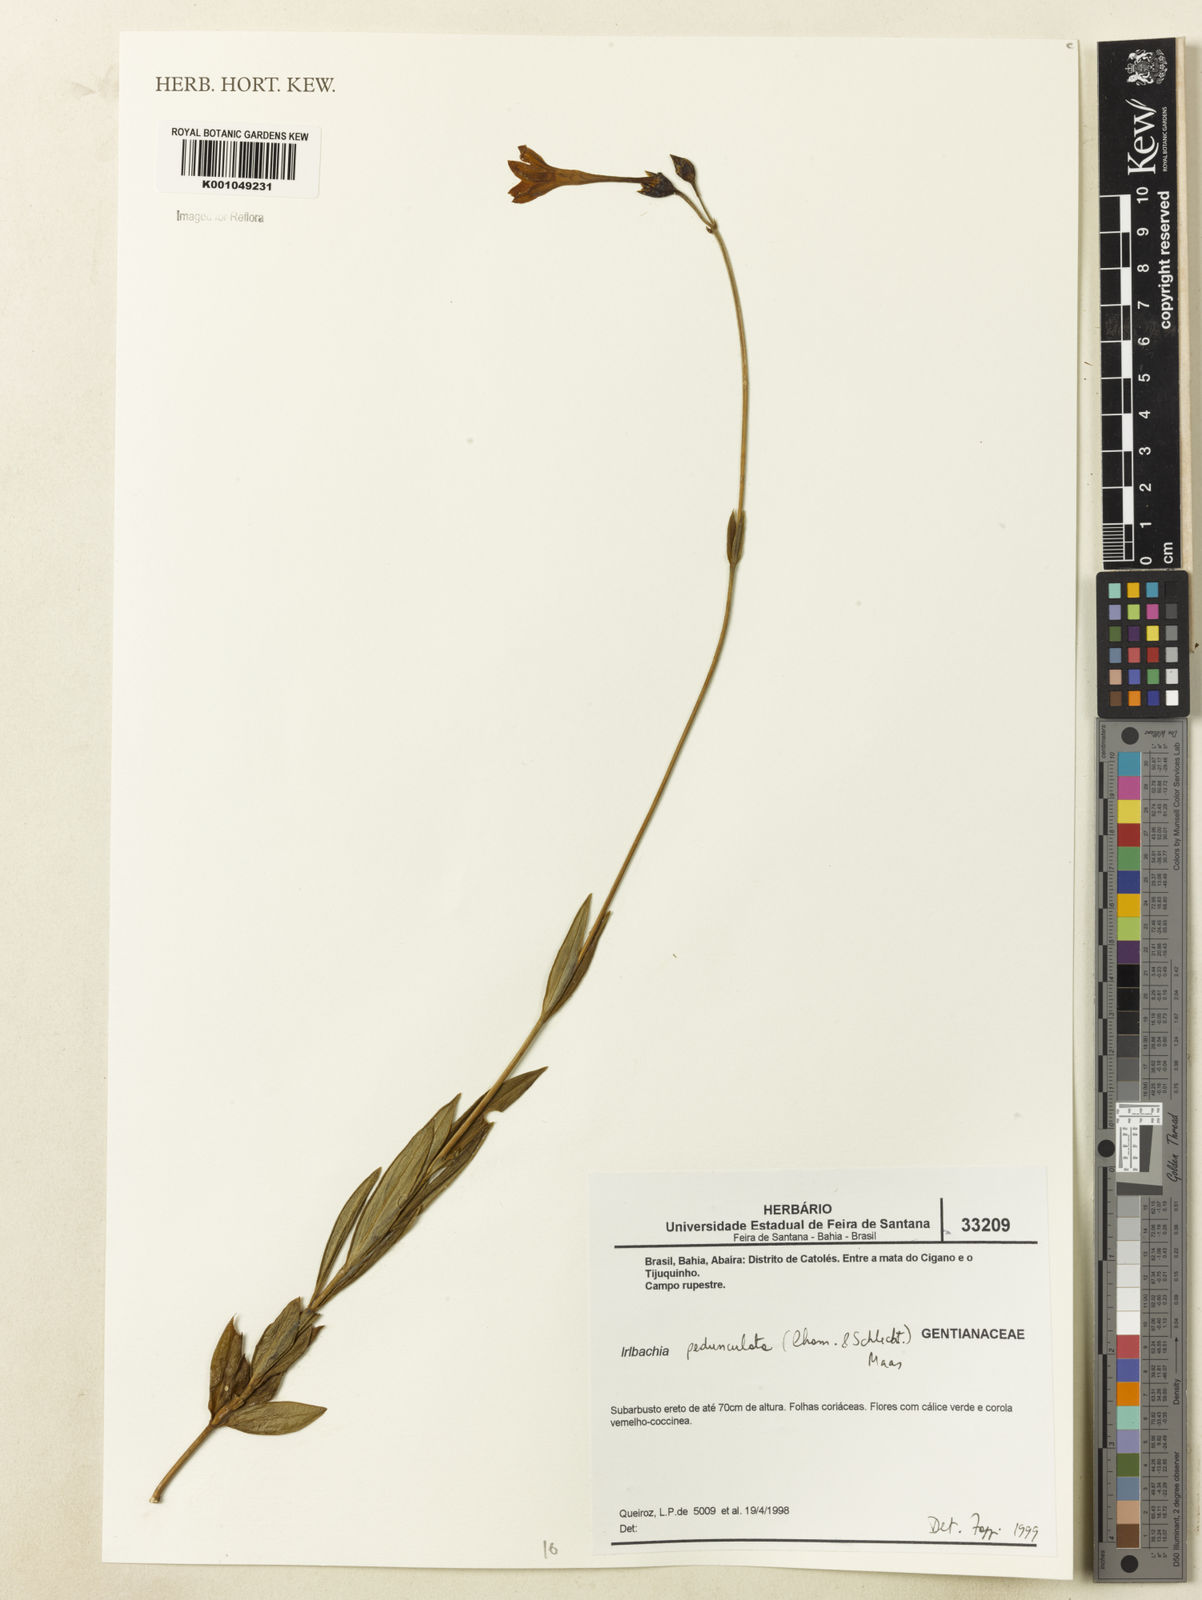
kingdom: Plantae
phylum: Tracheophyta
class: Magnoliopsida
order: Gentianales
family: Gentianaceae
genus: Calolisianthus
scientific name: Calolisianthus pedunculatus
